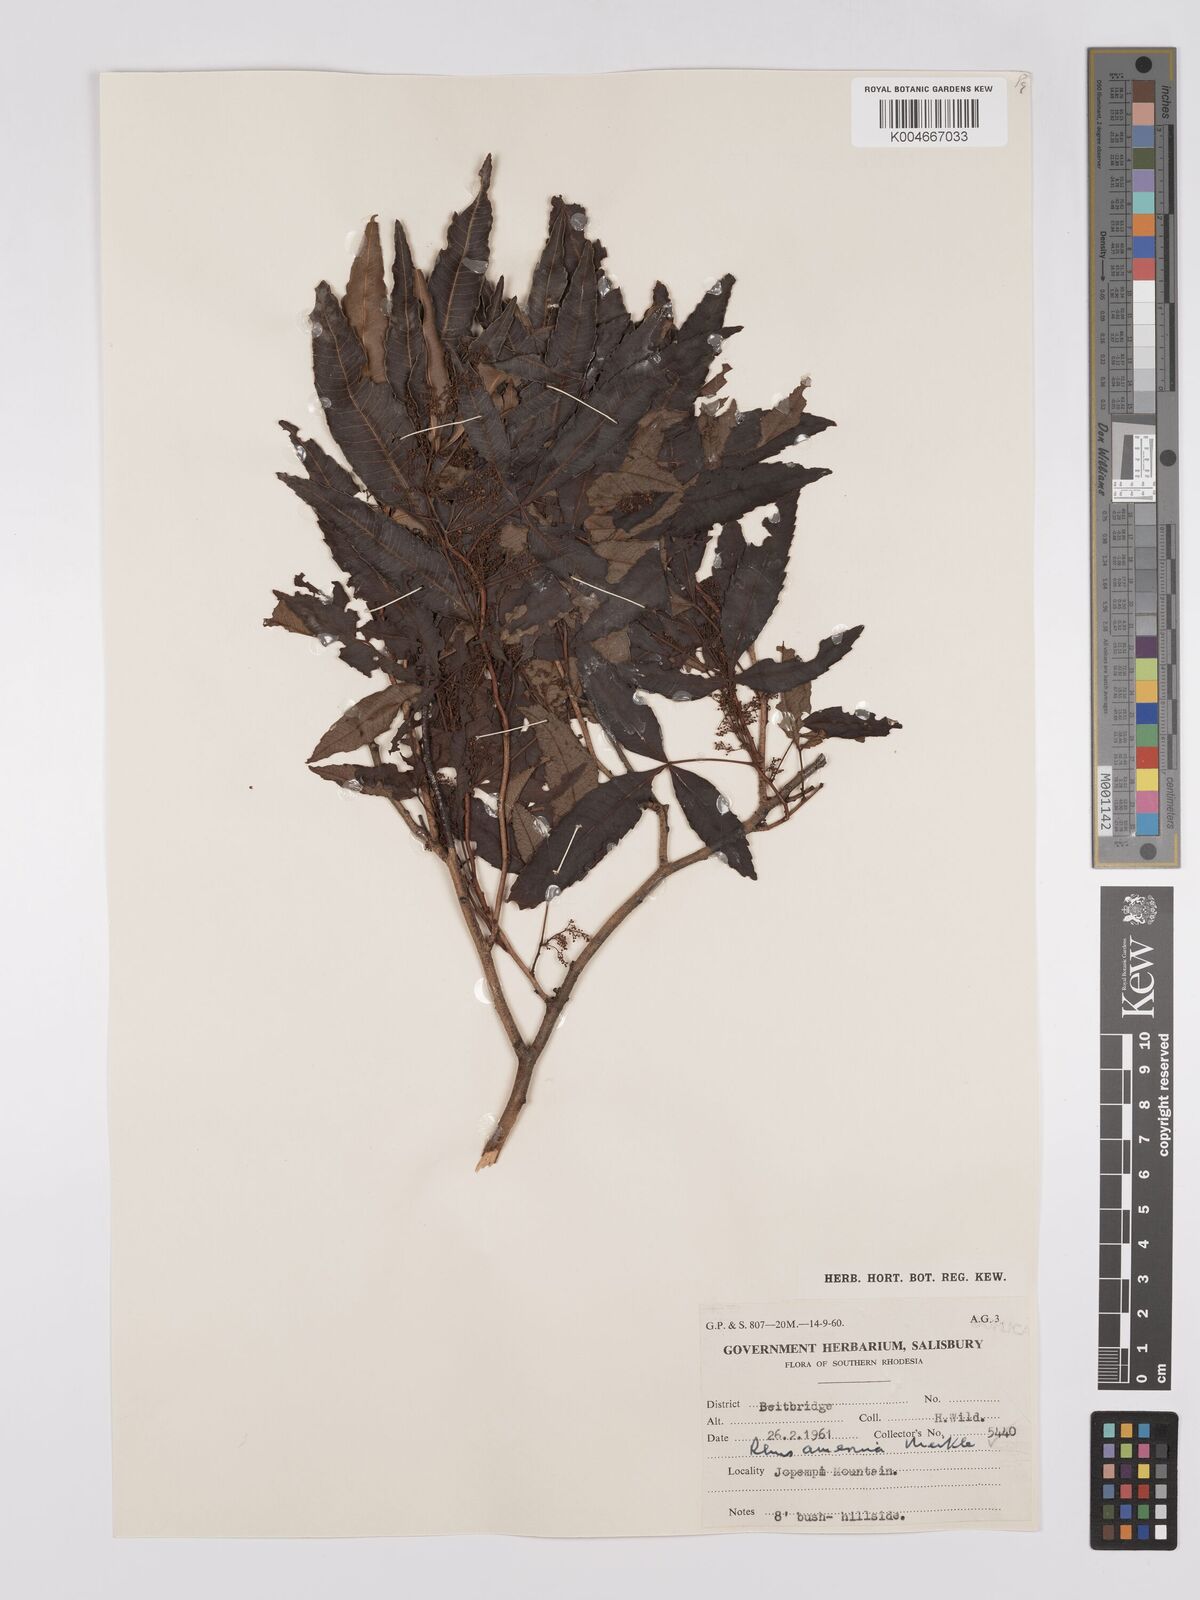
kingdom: Plantae
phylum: Tracheophyta
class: Magnoliopsida
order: Sapindales
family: Anacardiaceae
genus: Searsia
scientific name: Searsia leptodictya
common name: Mountain karee
